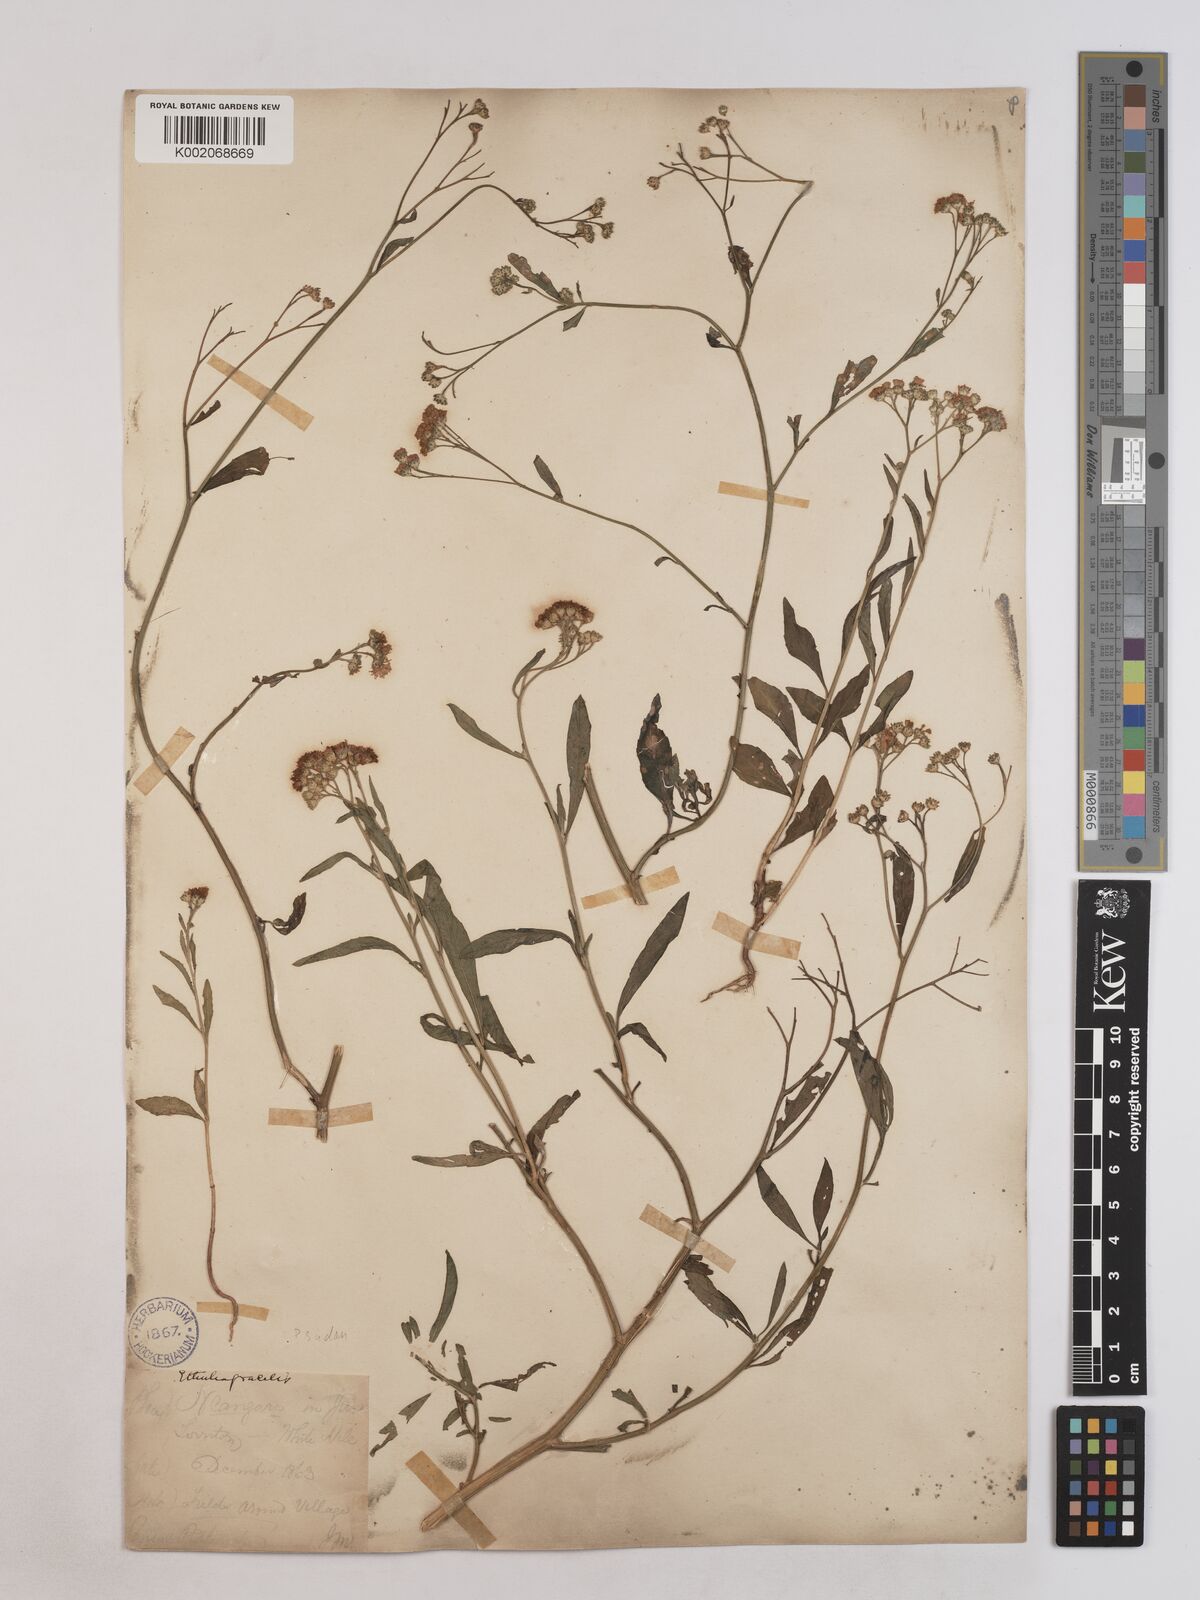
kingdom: Plantae
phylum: Tracheophyta
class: Magnoliopsida
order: Asterales
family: Asteraceae
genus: Ethulia
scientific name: Ethulia gracilis
